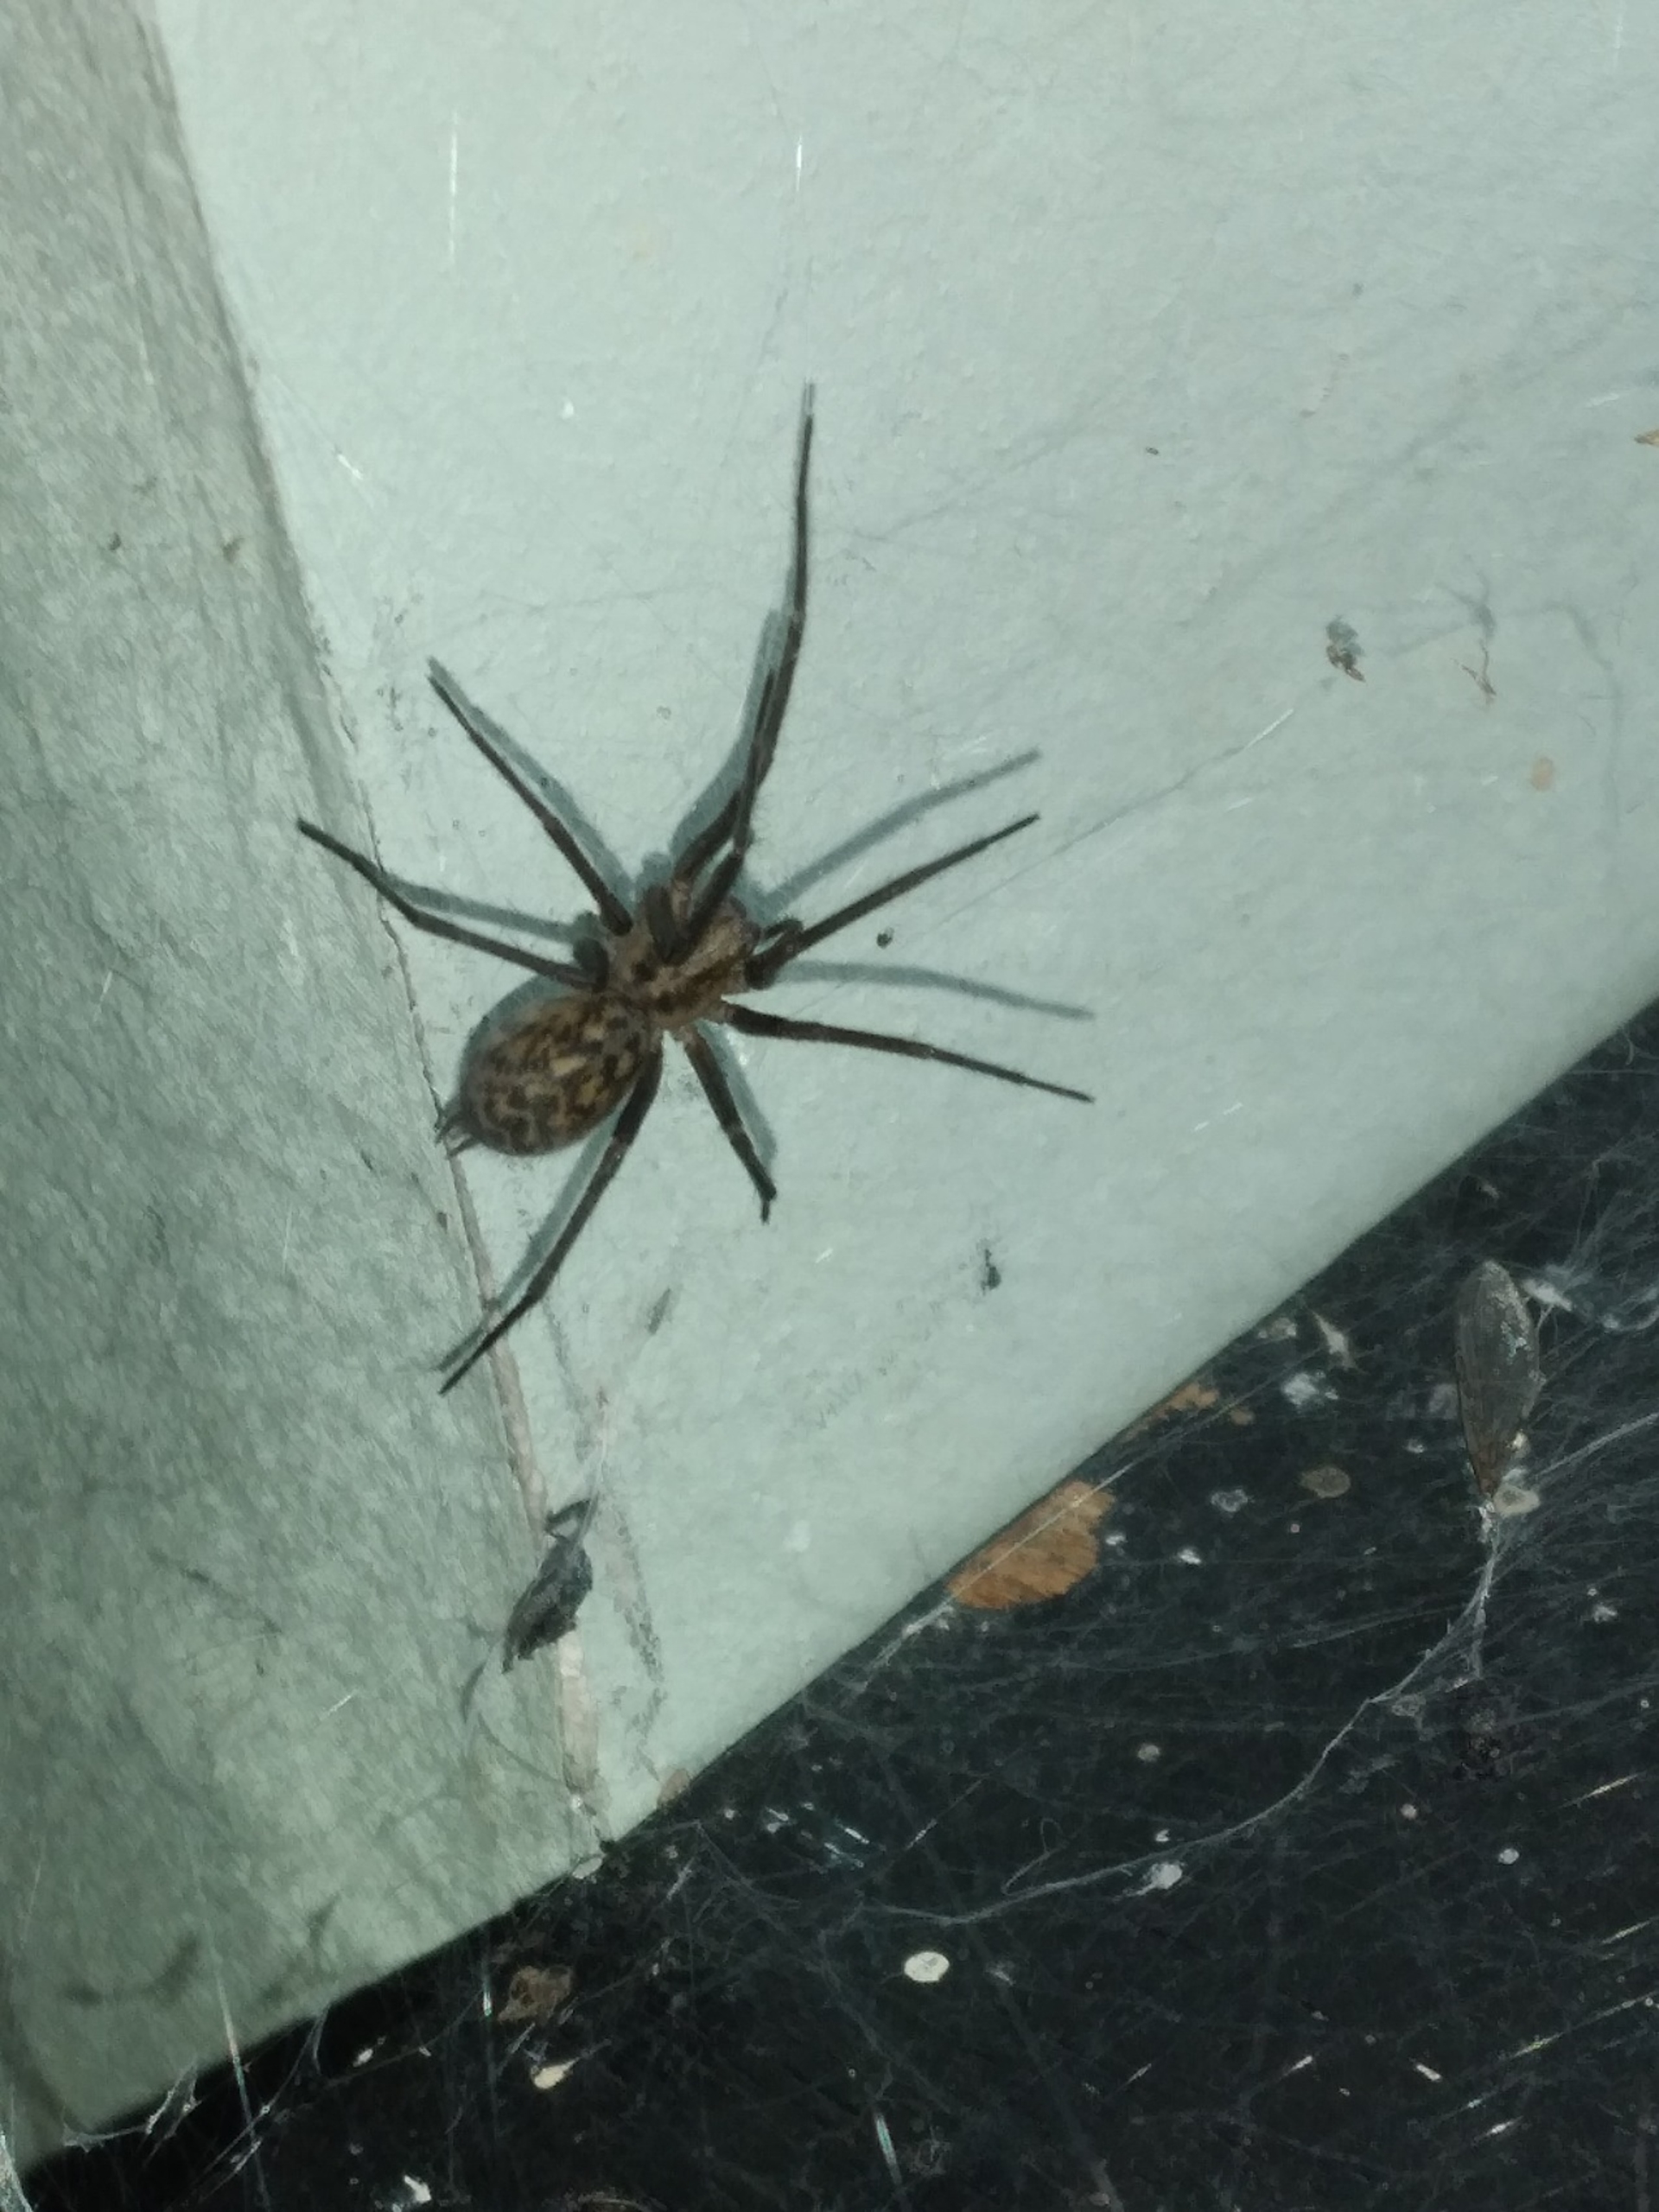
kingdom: Animalia
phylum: Arthropoda
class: Arachnida
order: Araneae
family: Agelenidae
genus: Eratigena
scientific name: Eratigena atrica
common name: Stor husedderkop
